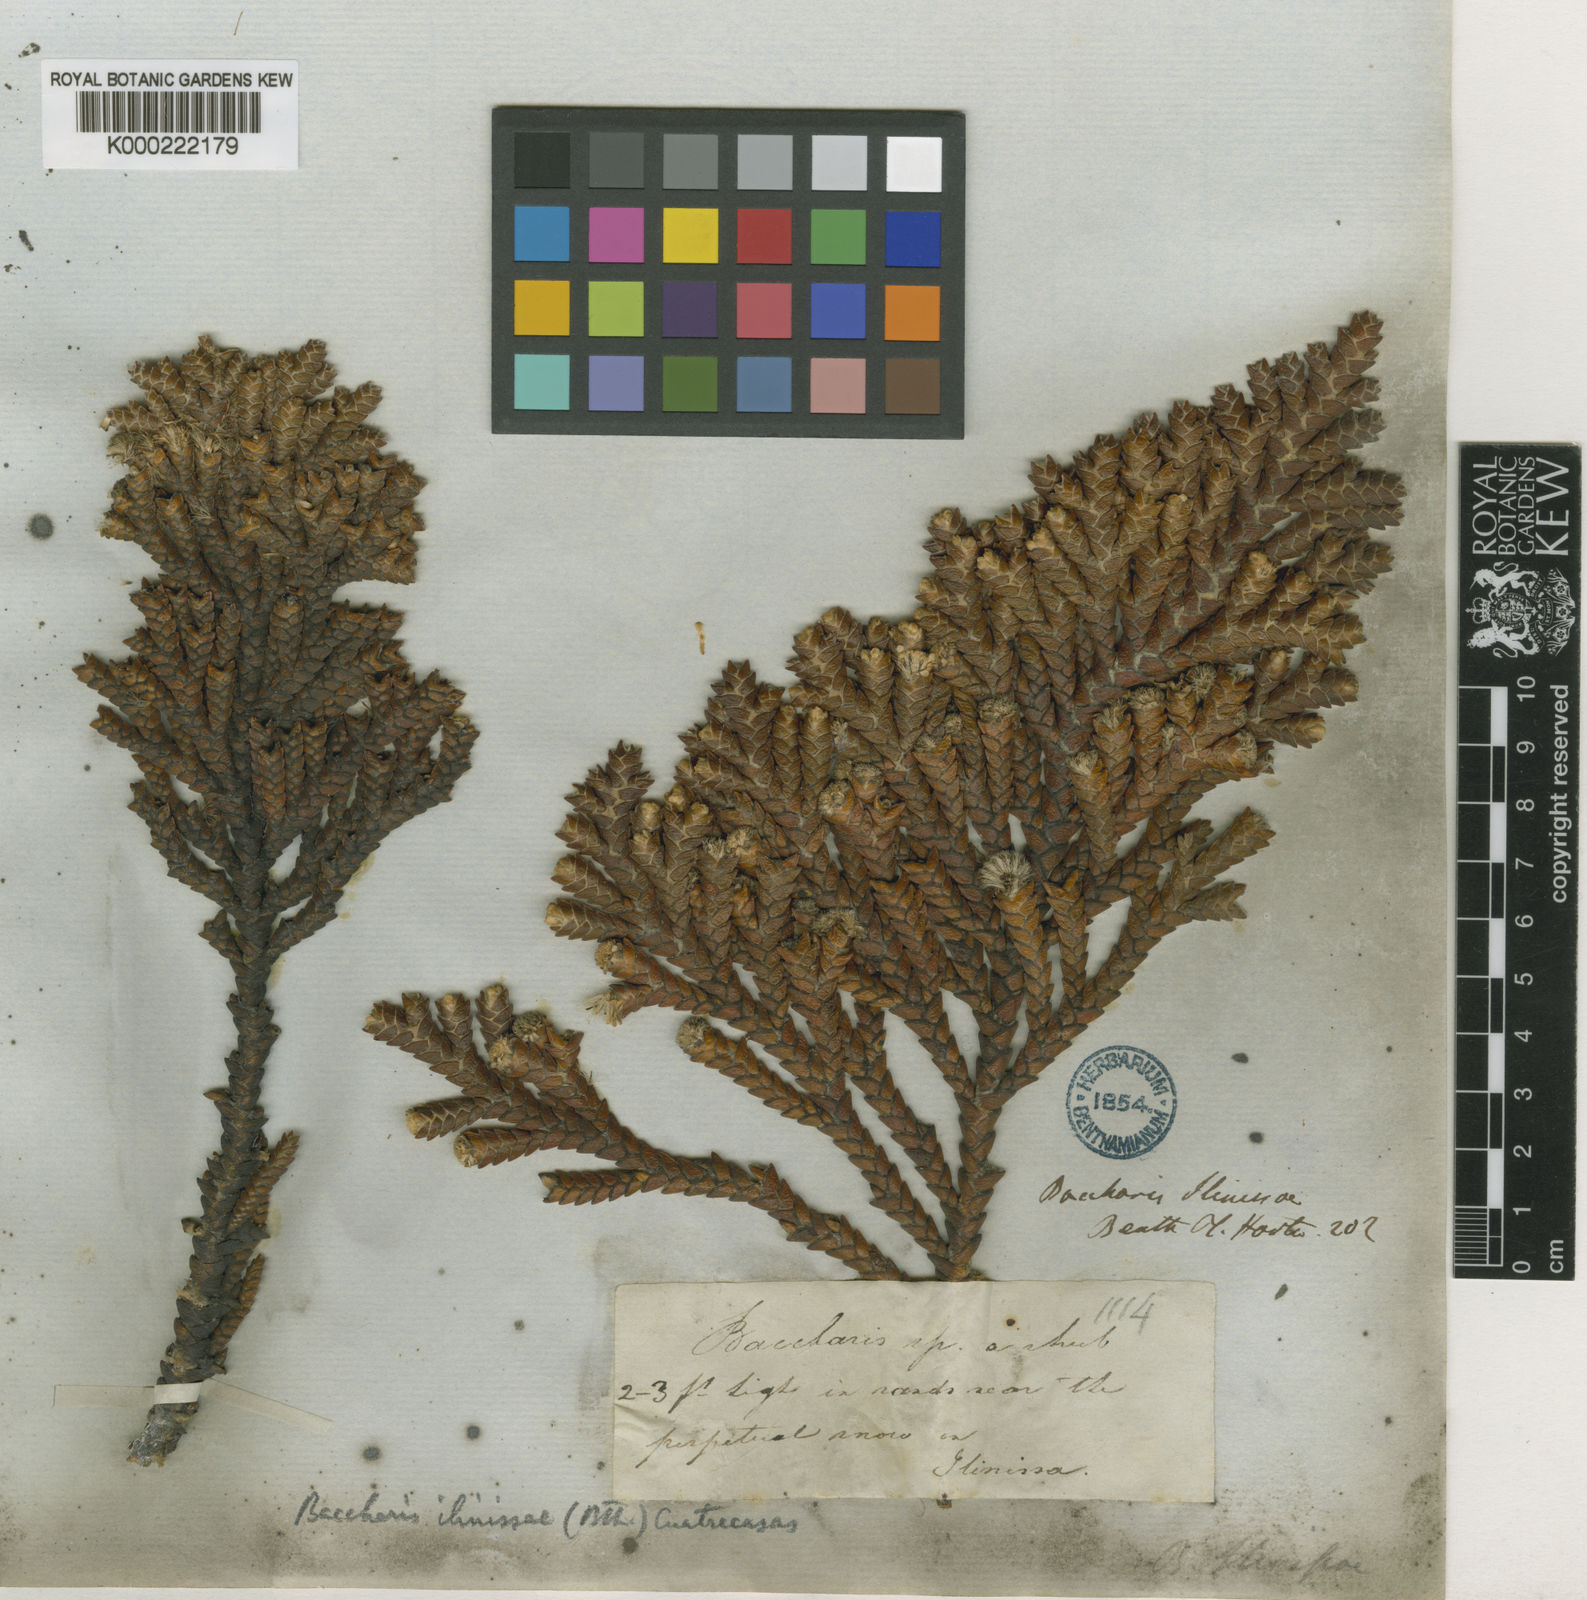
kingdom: Plantae
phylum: Tracheophyta
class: Magnoliopsida
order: Asterales
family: Asteraceae
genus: Andicolea
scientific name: Andicolea ilinissae
